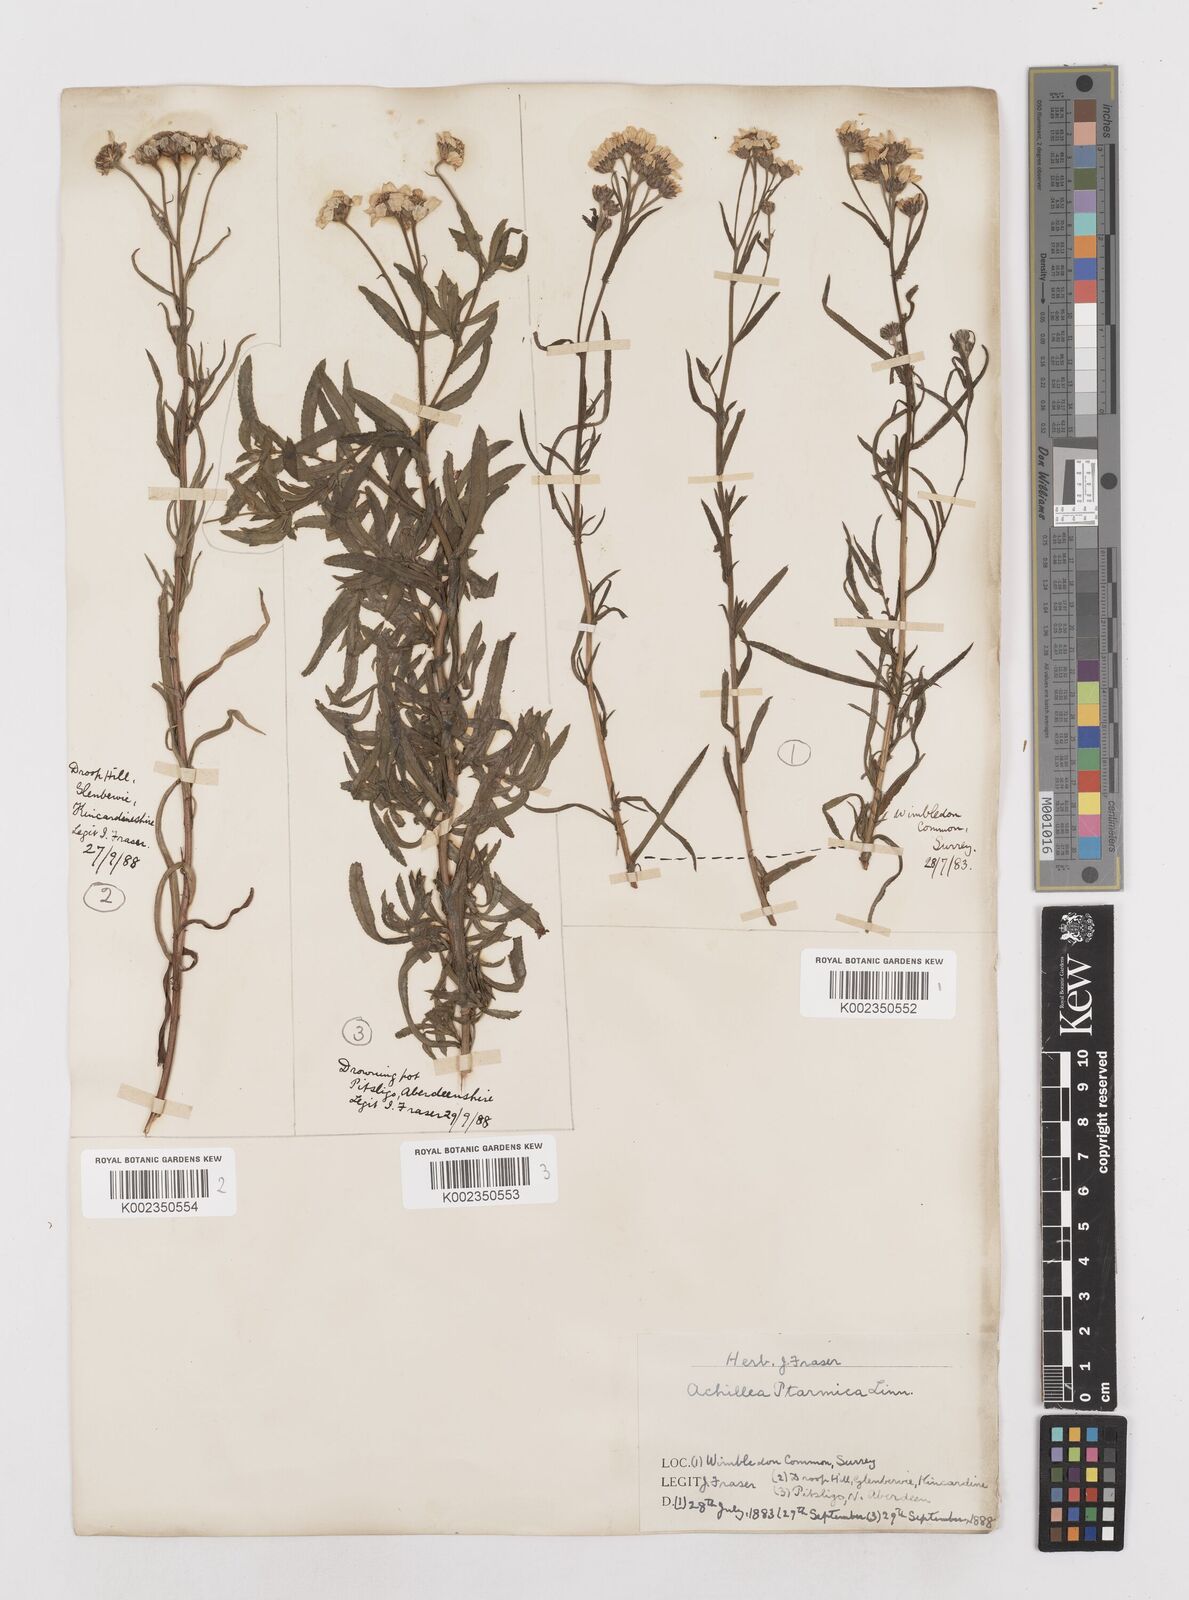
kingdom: Plantae
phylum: Tracheophyta
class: Magnoliopsida
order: Asterales
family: Asteraceae
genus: Achillea
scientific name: Achillea ptarmica
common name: Sneezeweed
